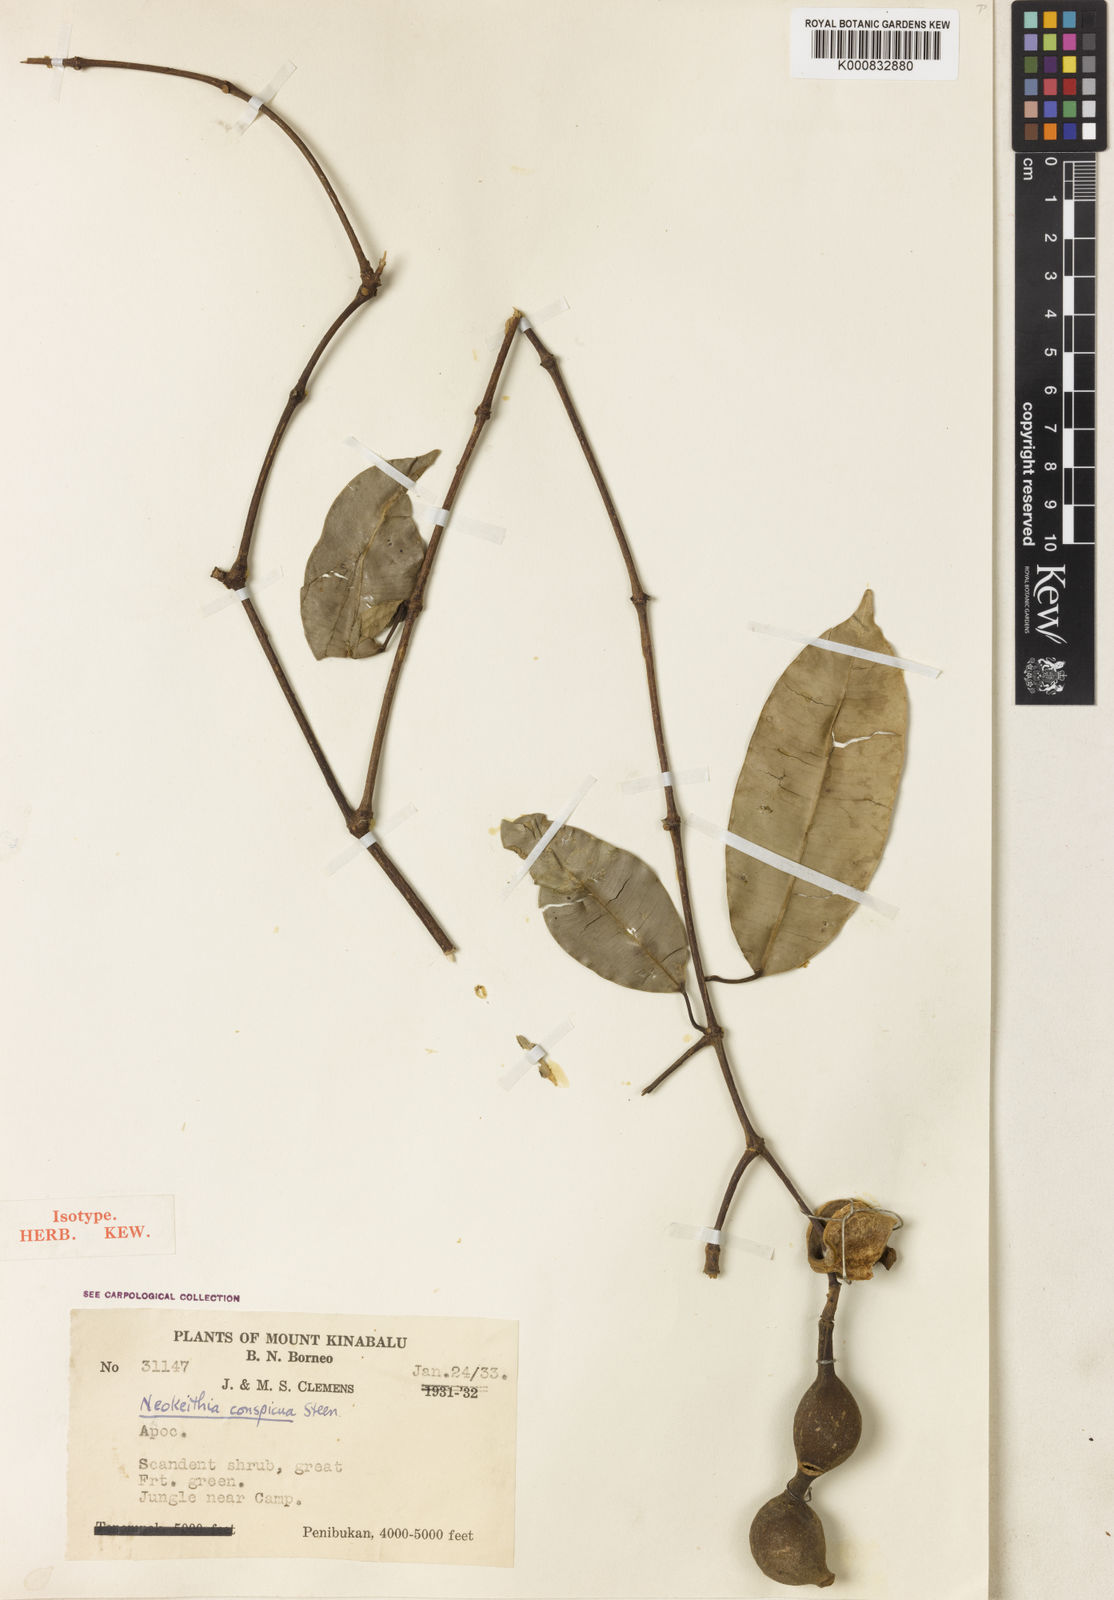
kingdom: Plantae
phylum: Tracheophyta
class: Magnoliopsida
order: Gentianales
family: Apocynaceae
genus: Chilocarpus
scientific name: Chilocarpus conspicuus
